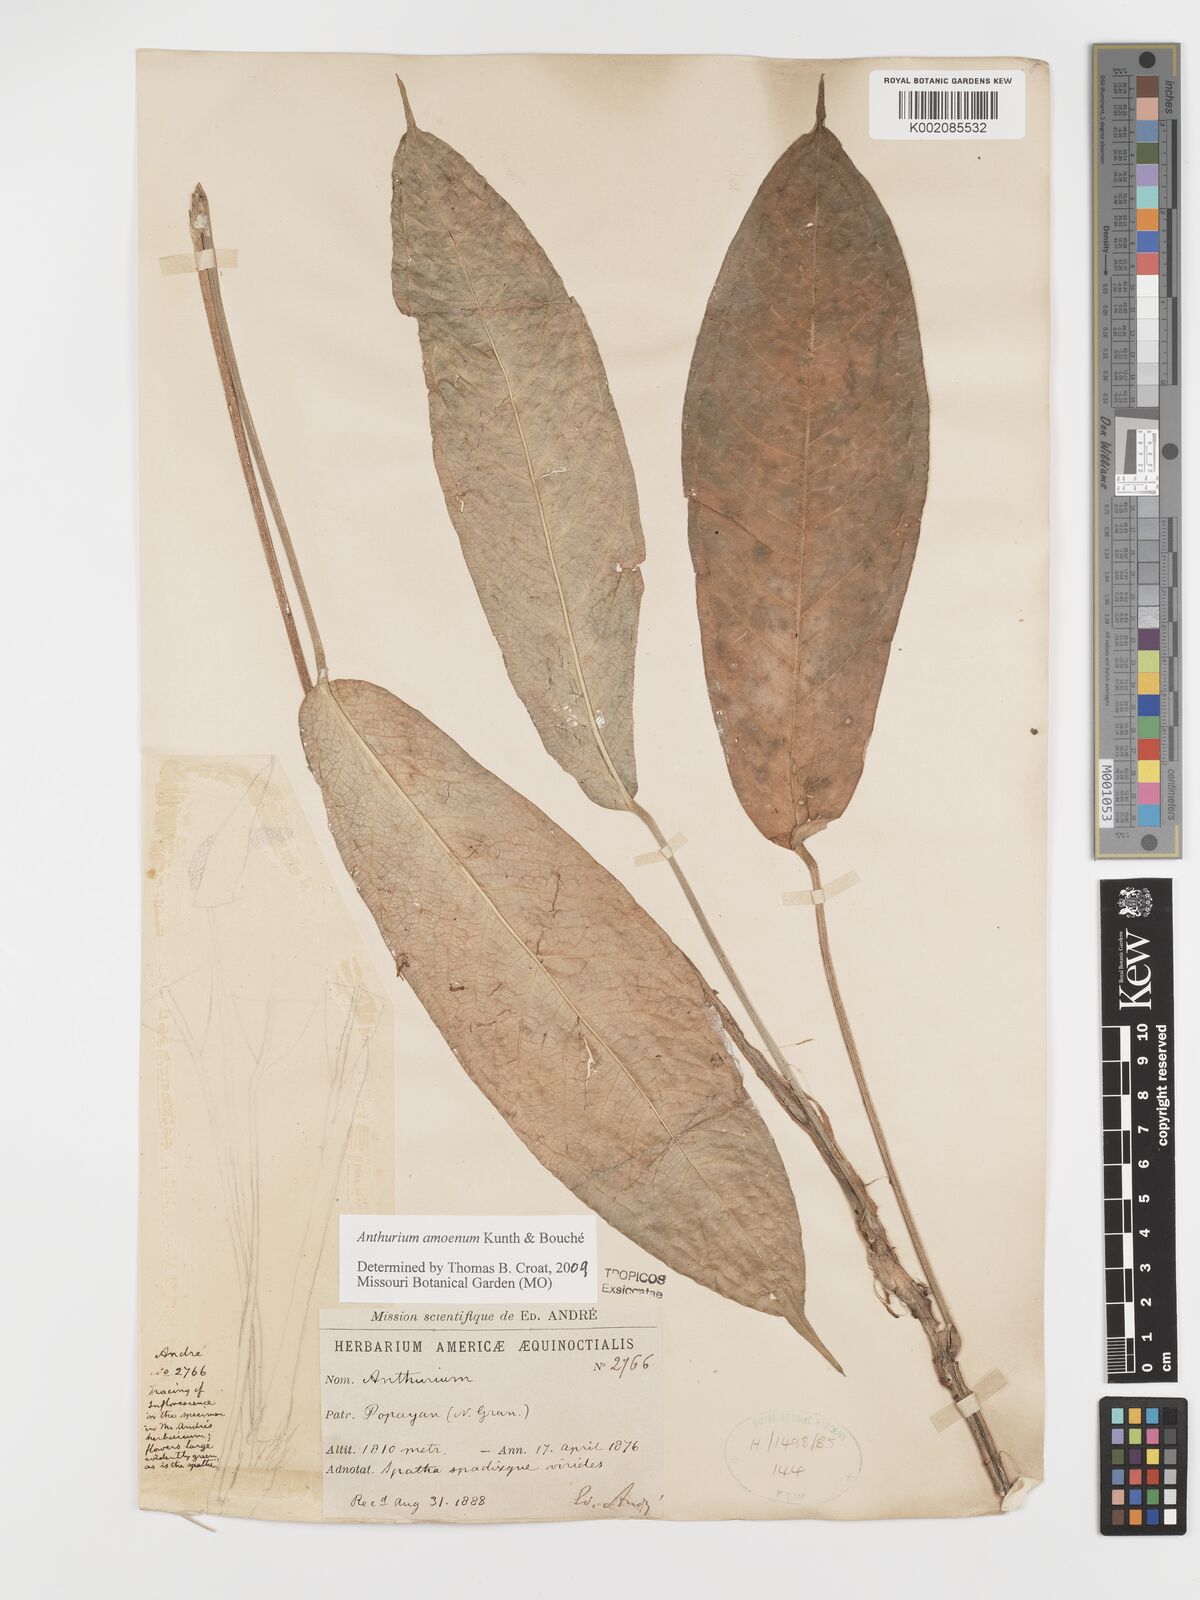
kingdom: Plantae
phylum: Tracheophyta
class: Liliopsida
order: Alismatales
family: Araceae
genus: Anthurium
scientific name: Anthurium amoenum
